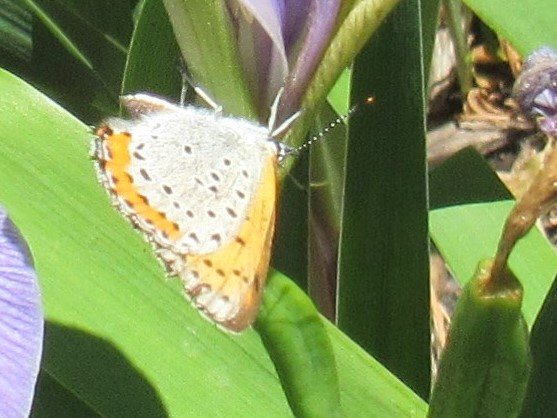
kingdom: Animalia
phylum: Arthropoda
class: Insecta
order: Lepidoptera
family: Sesiidae
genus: Sesia
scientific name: Sesia Lycaena hyllus
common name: Bronze Copper
